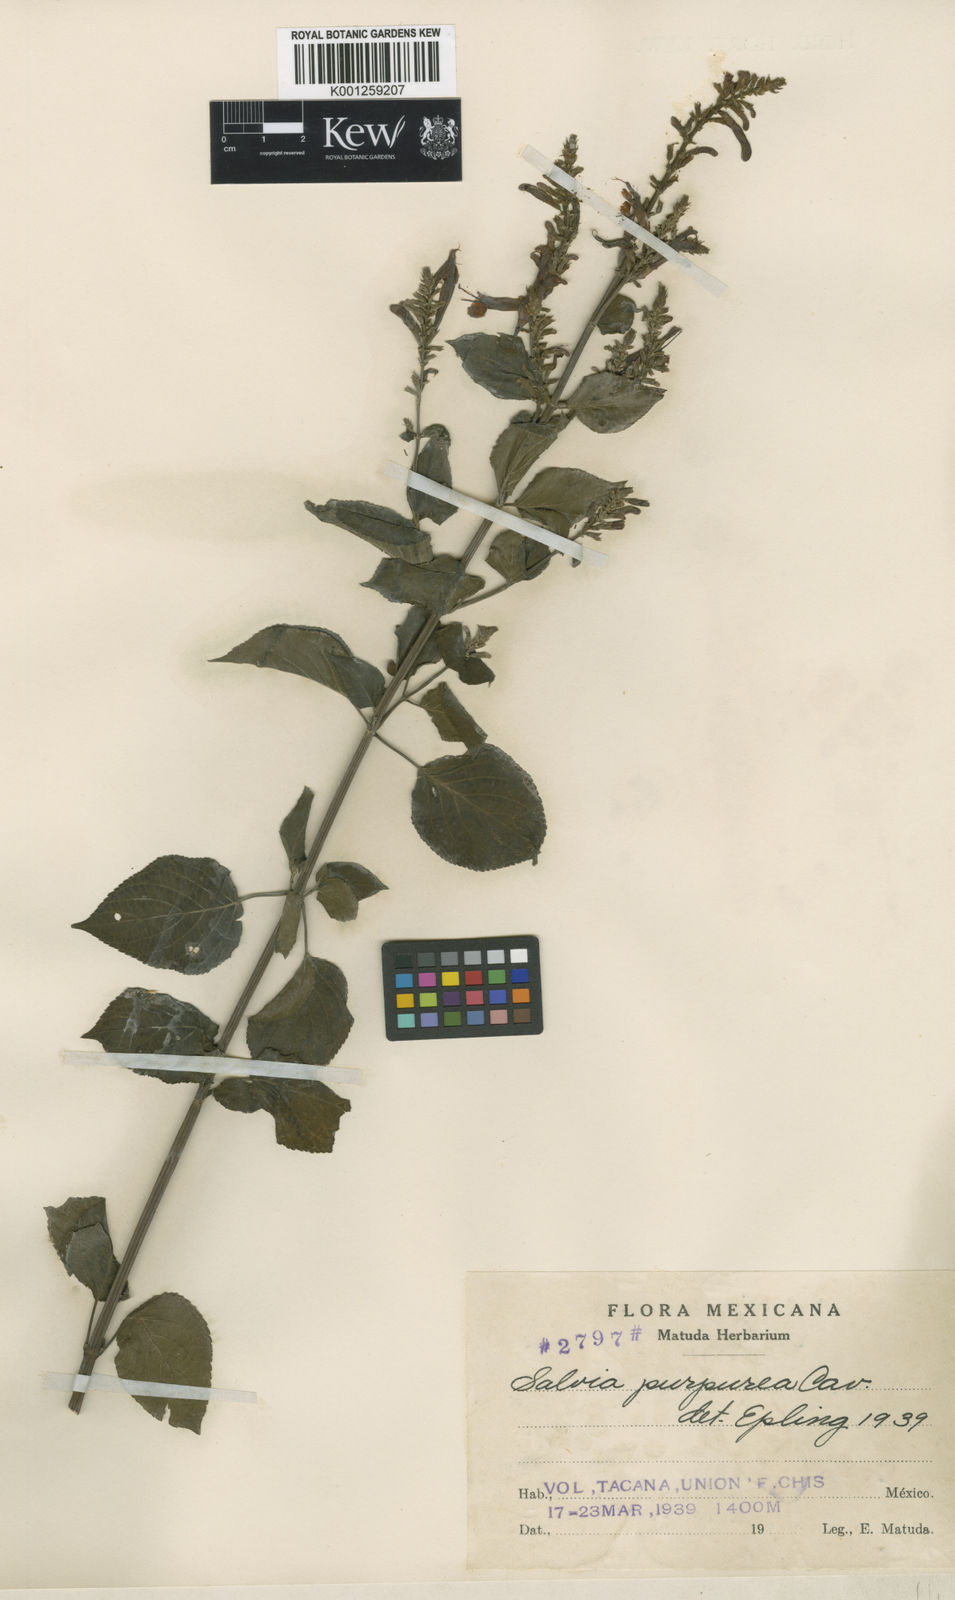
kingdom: Plantae
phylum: Tracheophyta
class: Magnoliopsida
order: Lamiales
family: Lamiaceae
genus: Salvia
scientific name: Salvia purpurea
